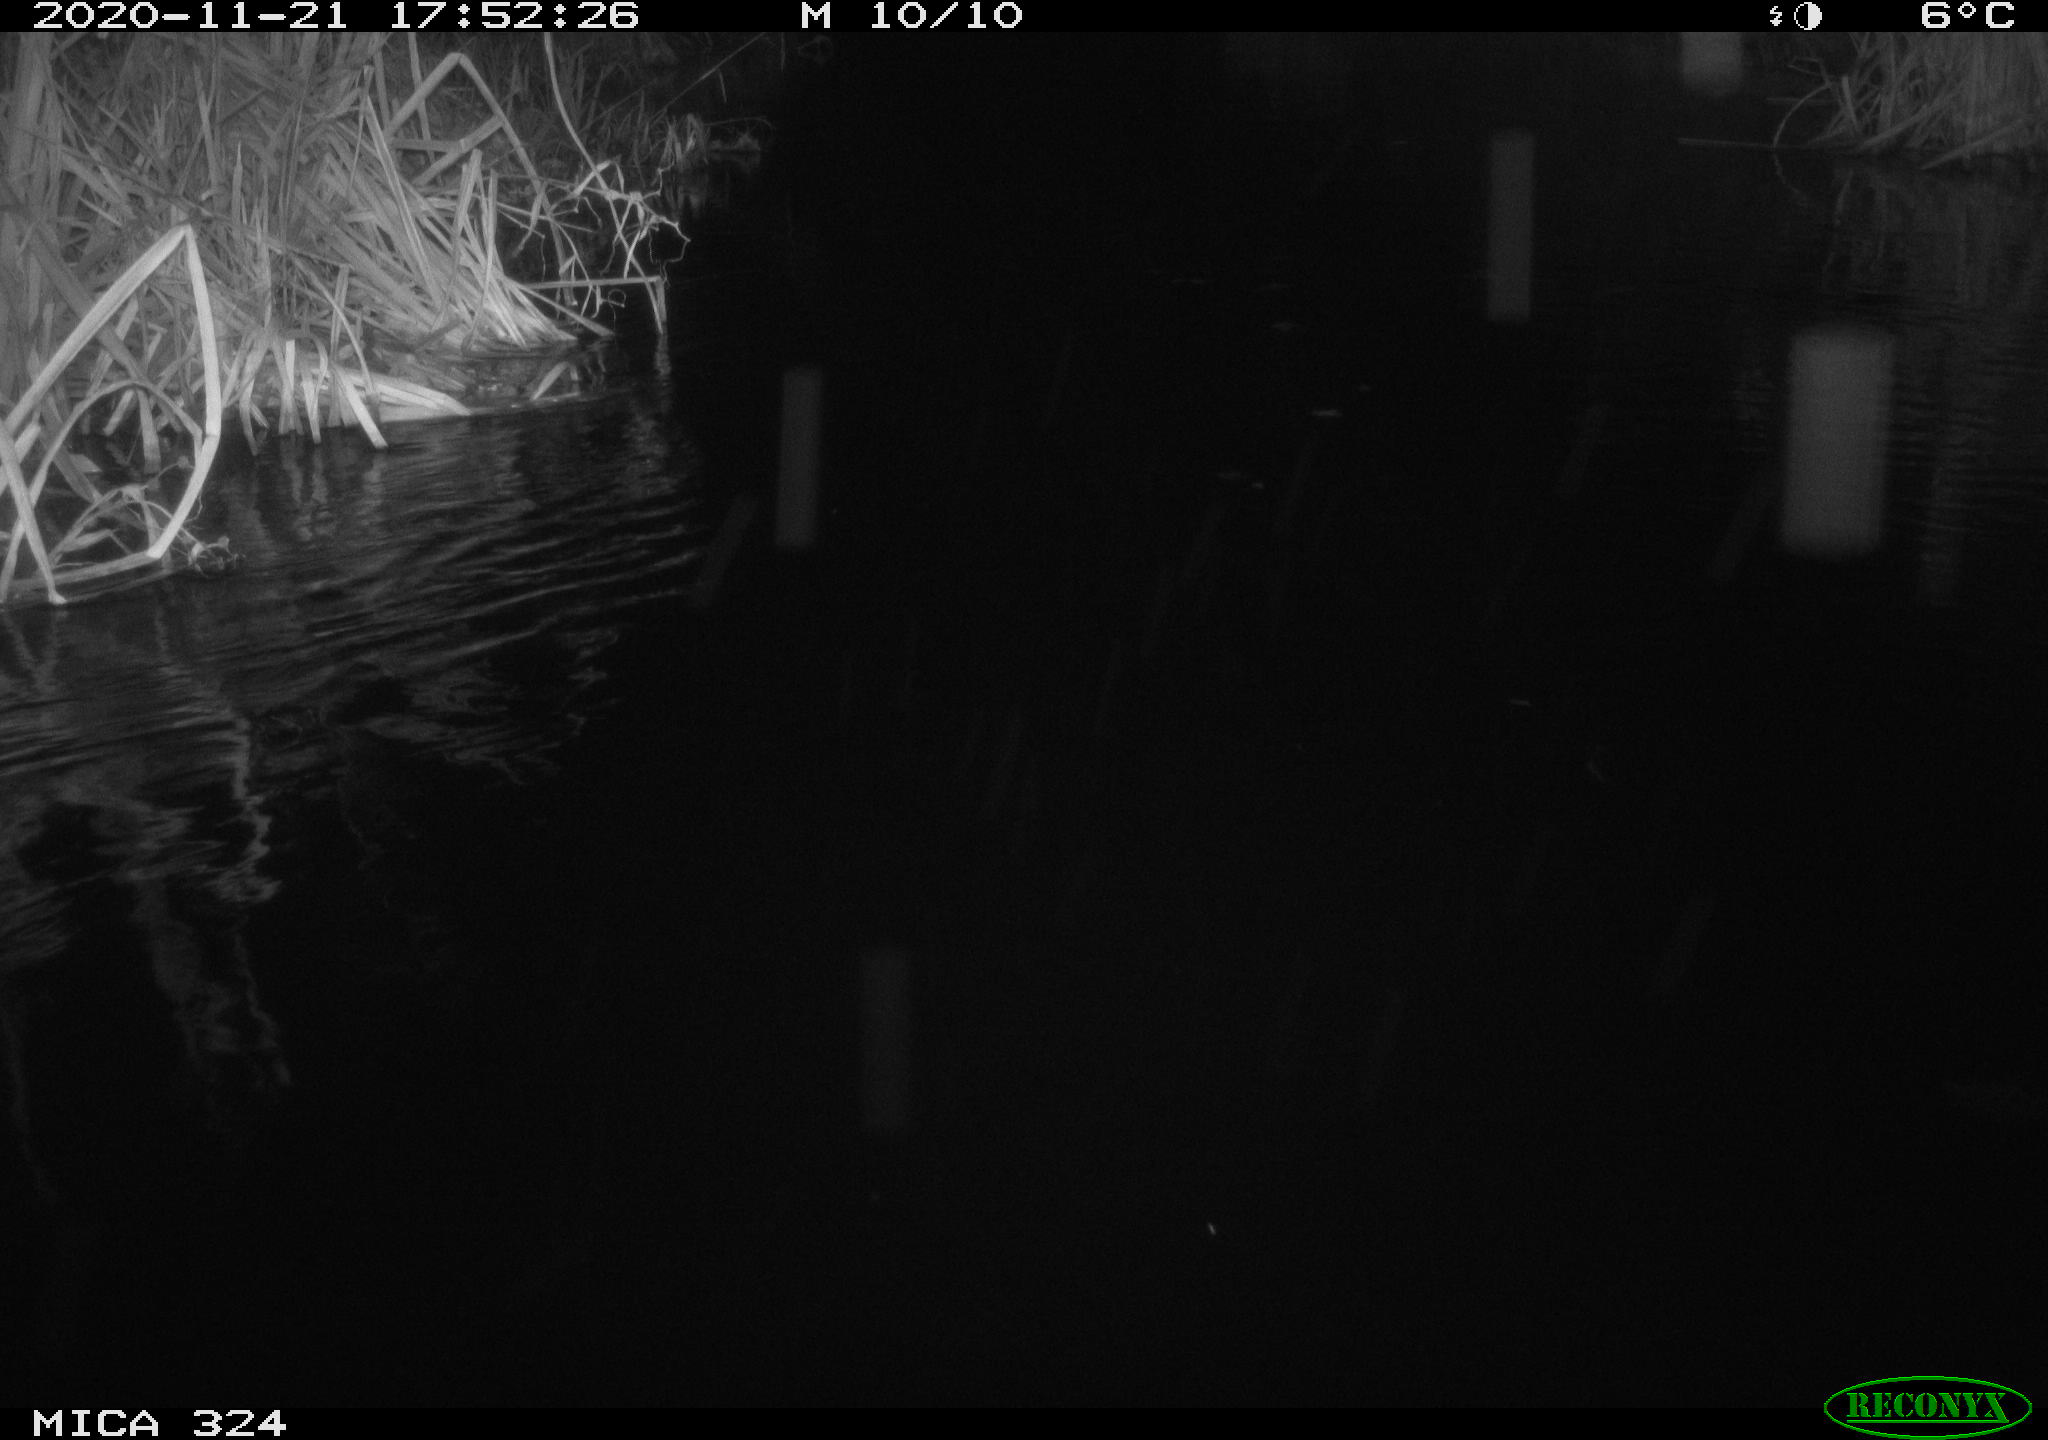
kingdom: Animalia
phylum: Chordata
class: Mammalia
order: Rodentia
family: Muridae
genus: Rattus
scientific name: Rattus norvegicus
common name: Brown rat
